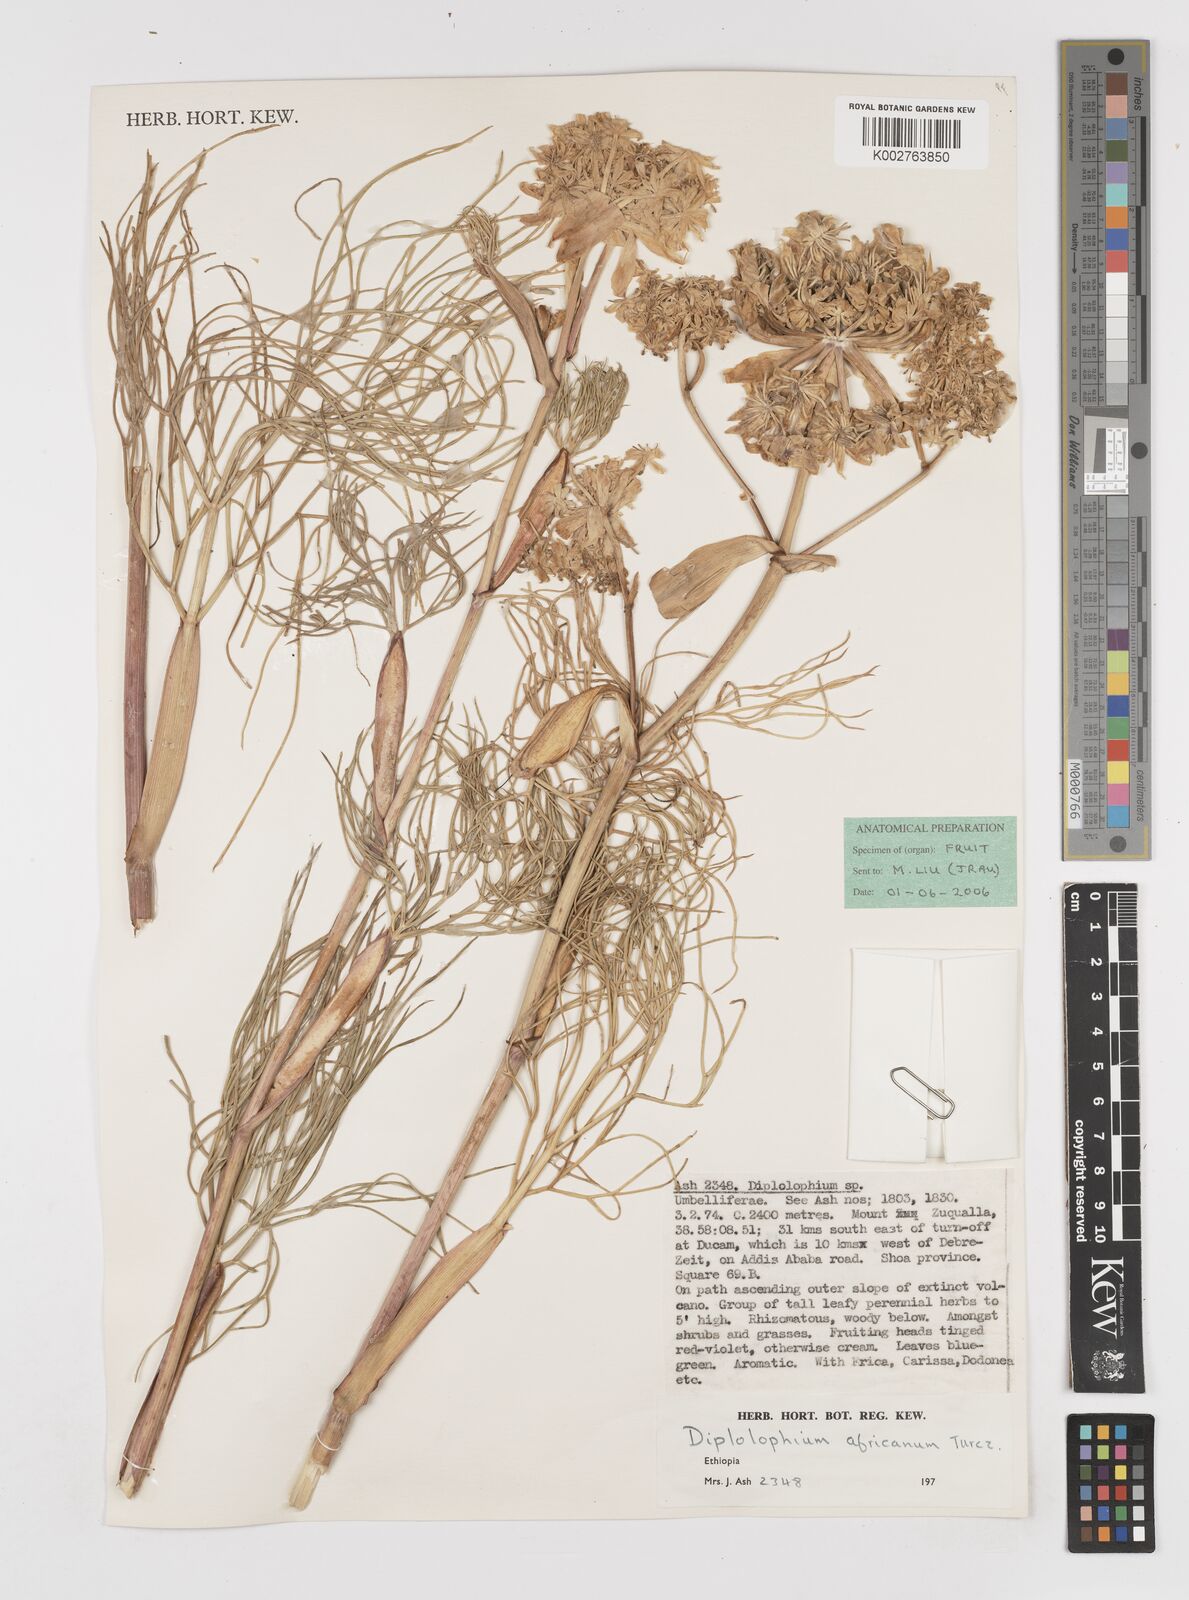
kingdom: Plantae
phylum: Tracheophyta
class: Magnoliopsida
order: Apiales
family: Apiaceae
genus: Diplolophium
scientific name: Diplolophium africanum
